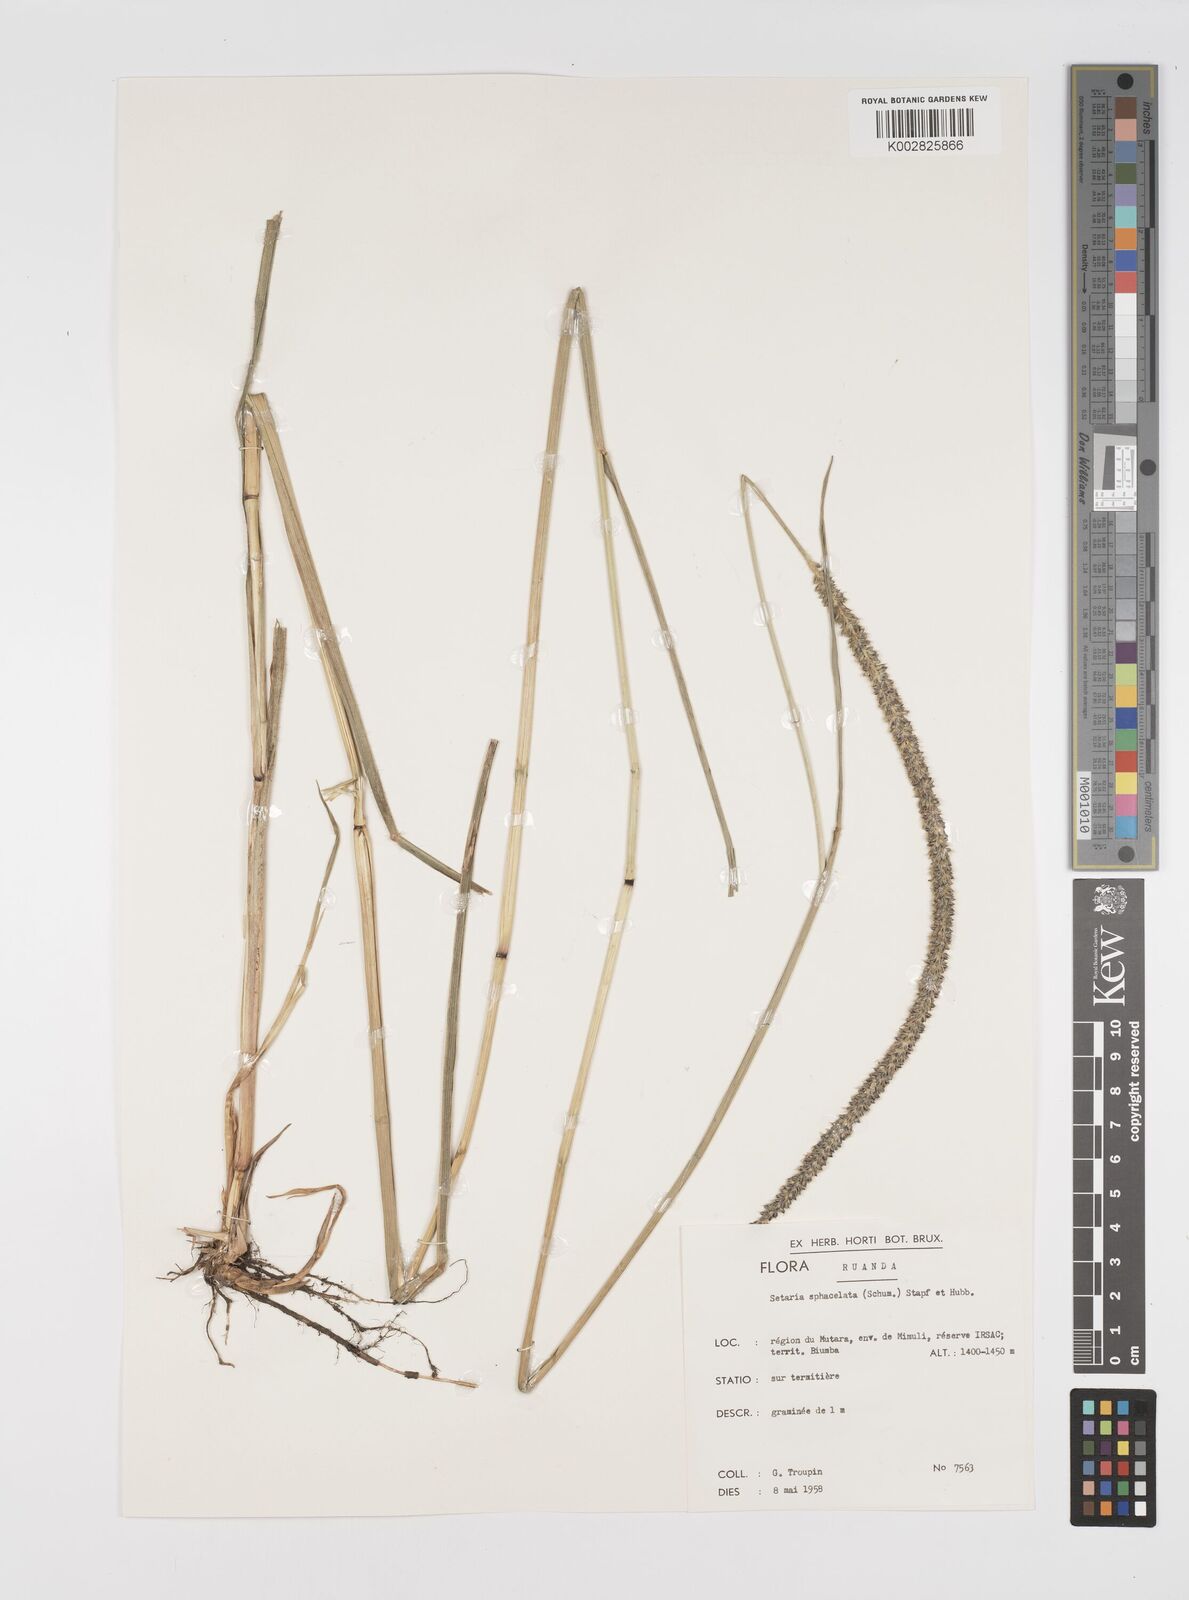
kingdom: Plantae
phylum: Tracheophyta
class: Liliopsida
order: Poales
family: Poaceae
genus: Setaria
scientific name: Setaria sphacelata
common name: African bristlegrass
